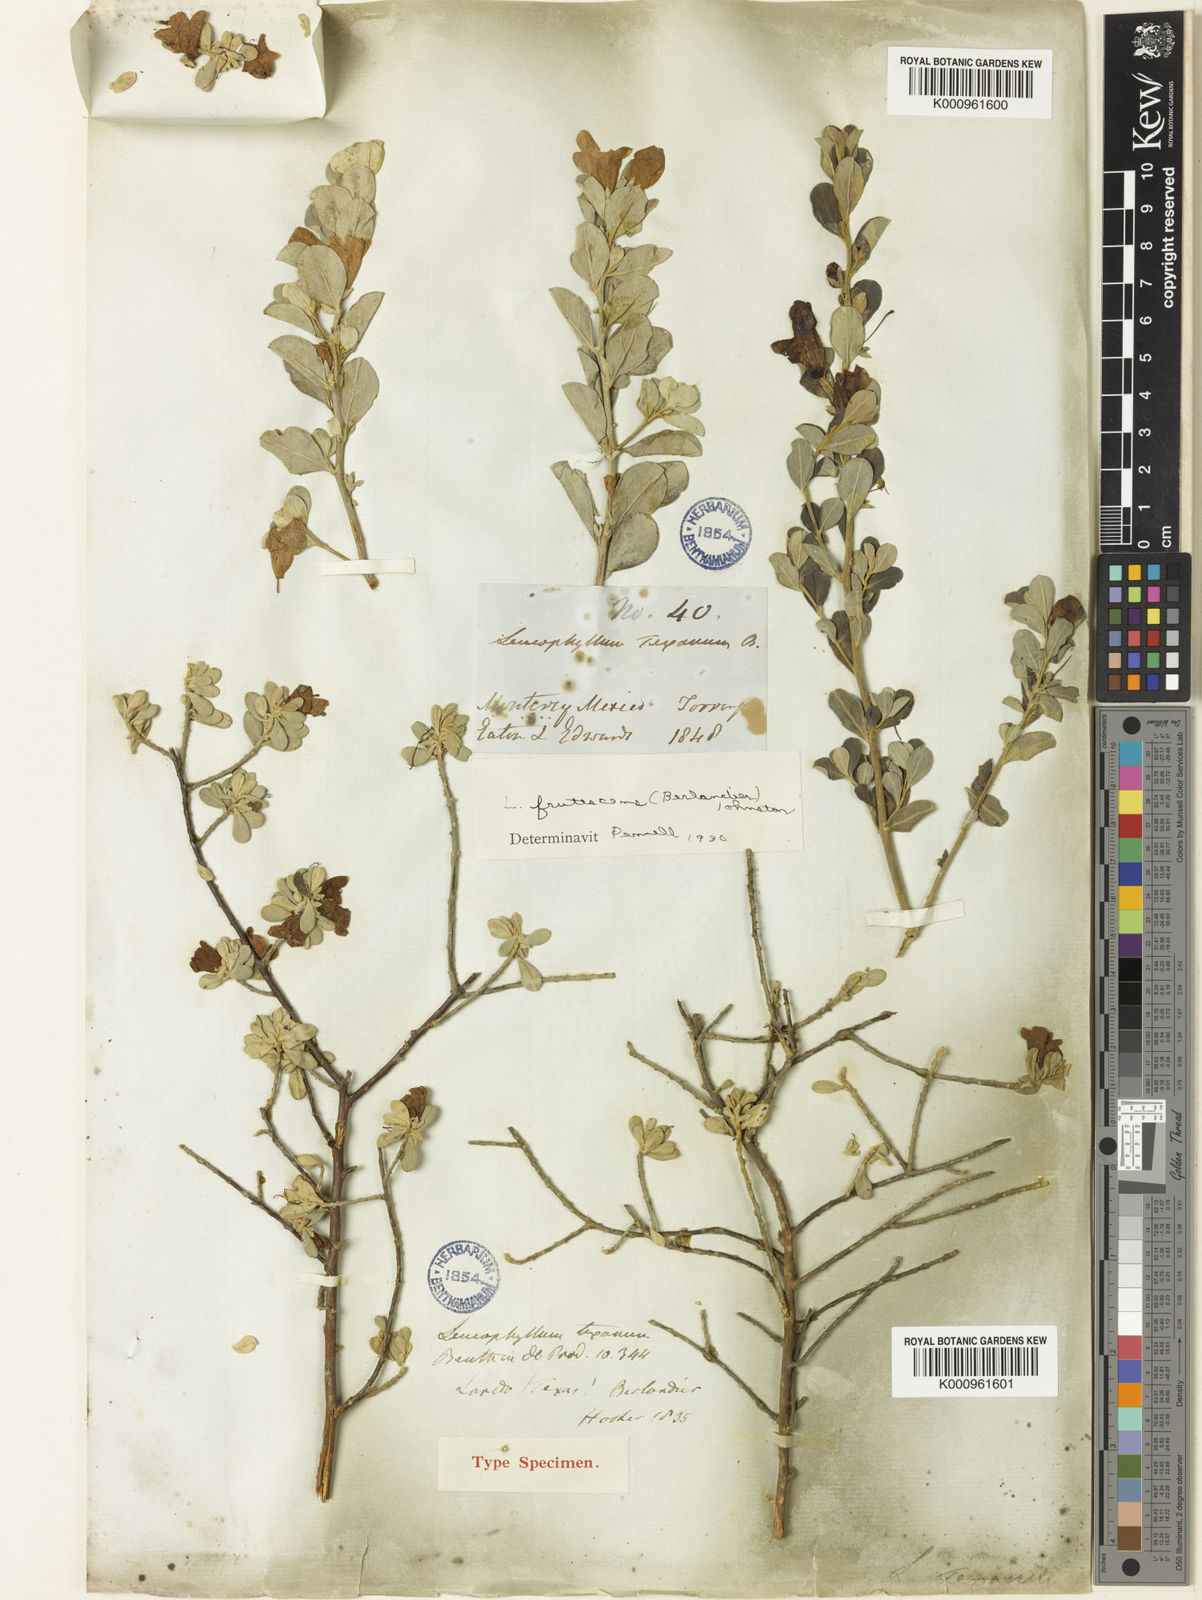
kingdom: Plantae
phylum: Tracheophyta
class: Magnoliopsida
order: Lamiales
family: Scrophulariaceae
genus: Leucophyllum
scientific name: Leucophyllum frutescens
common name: Texas silverleaf
